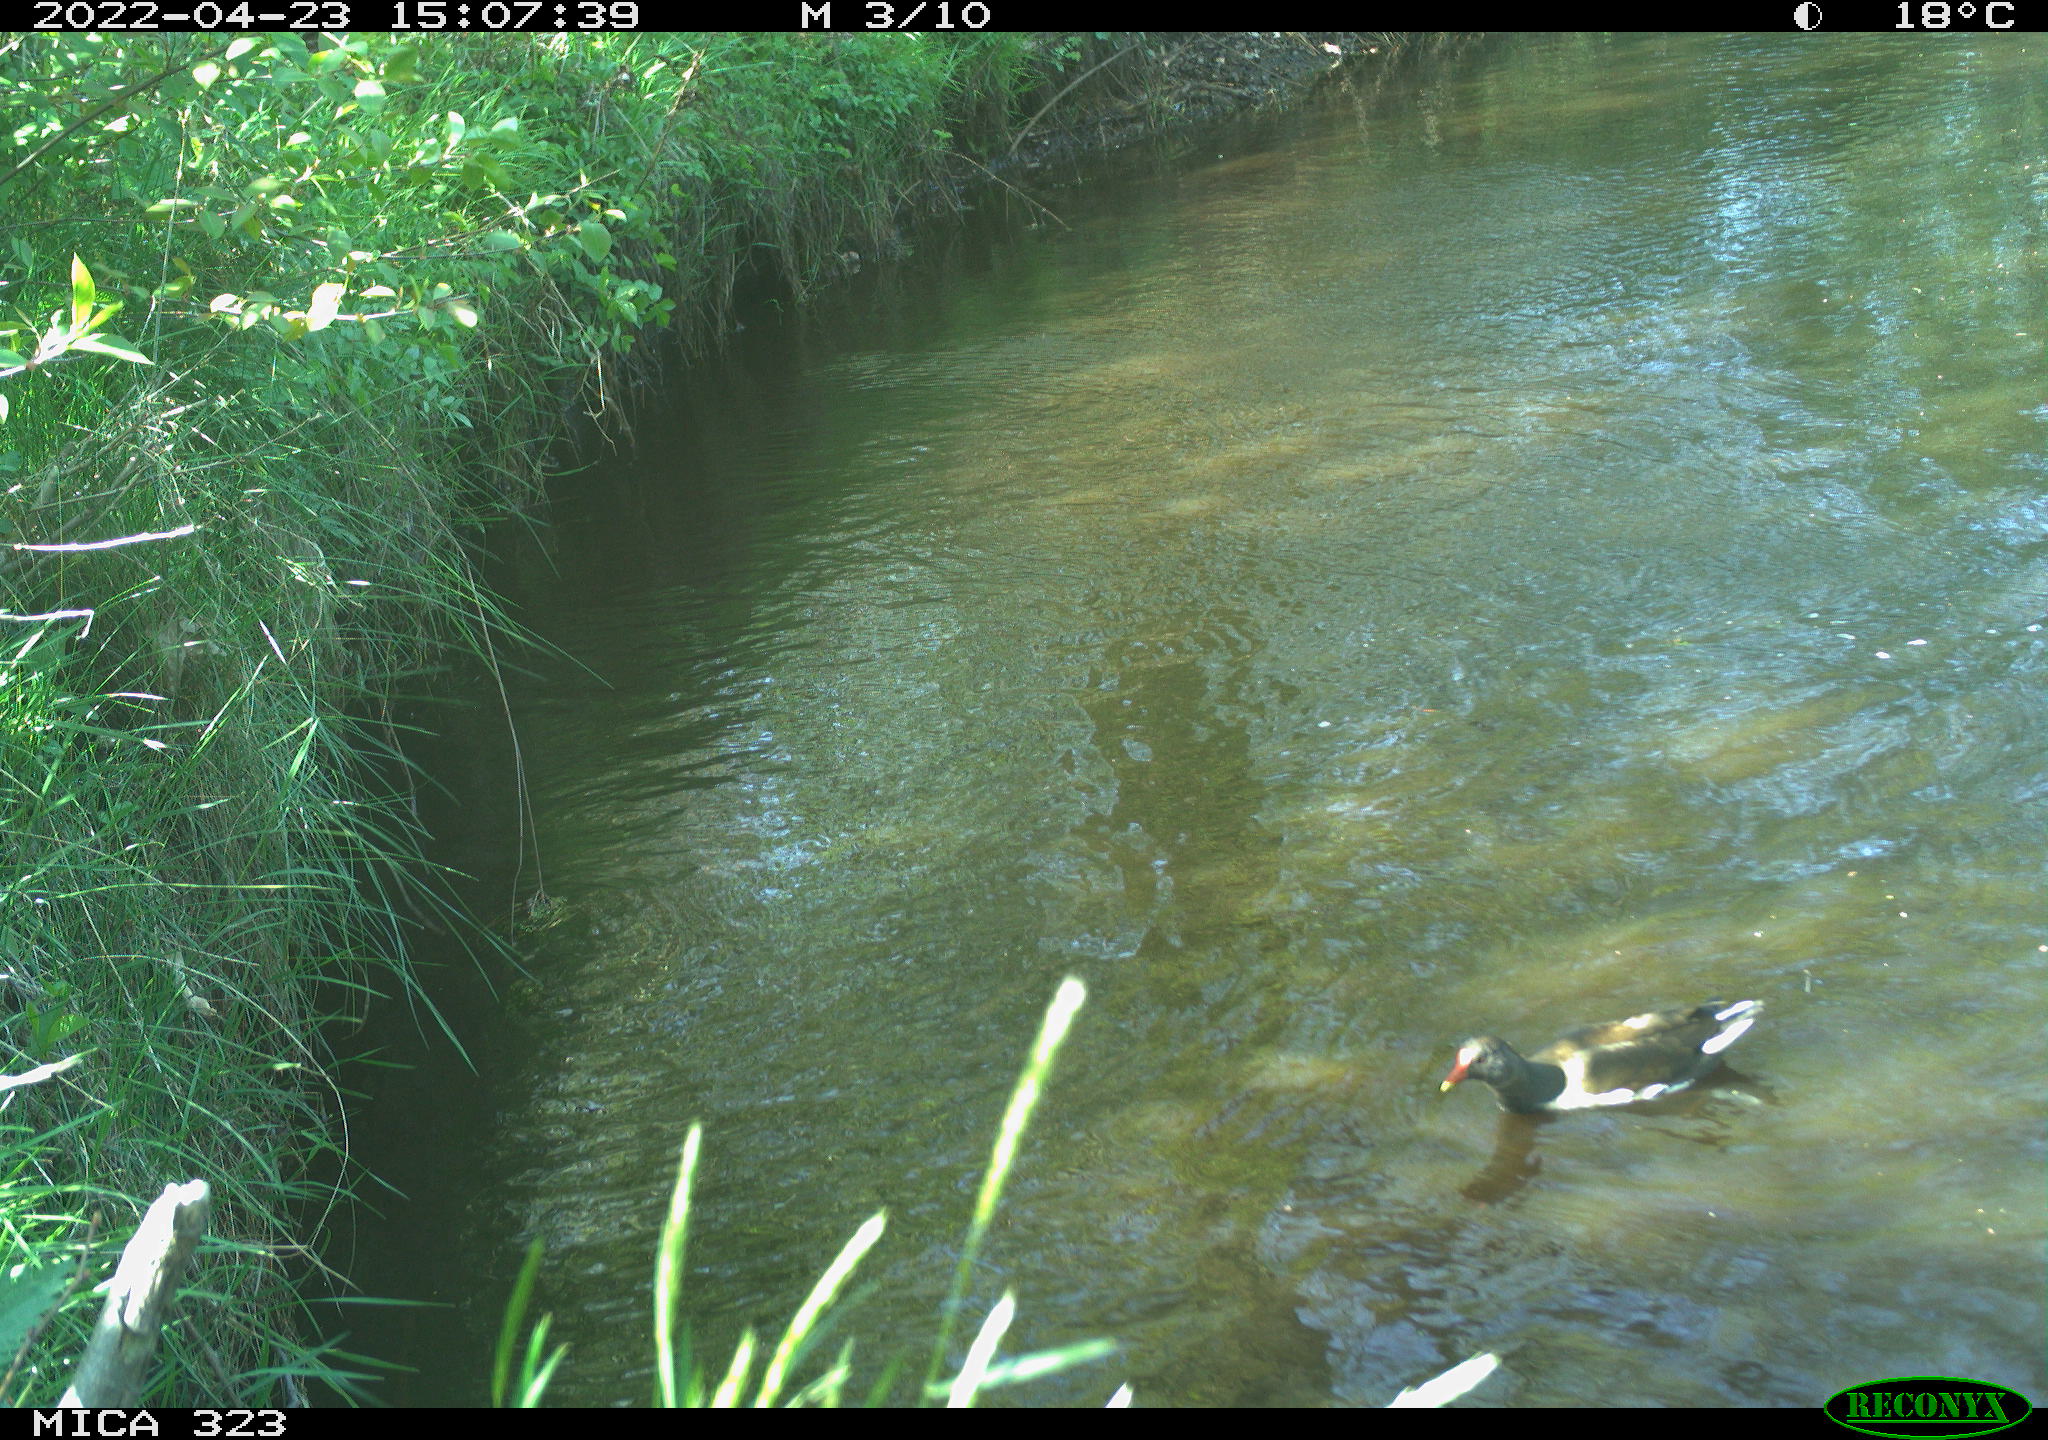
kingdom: Animalia
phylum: Chordata
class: Aves
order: Gruiformes
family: Rallidae
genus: Gallinula
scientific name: Gallinula chloropus
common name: Common moorhen
